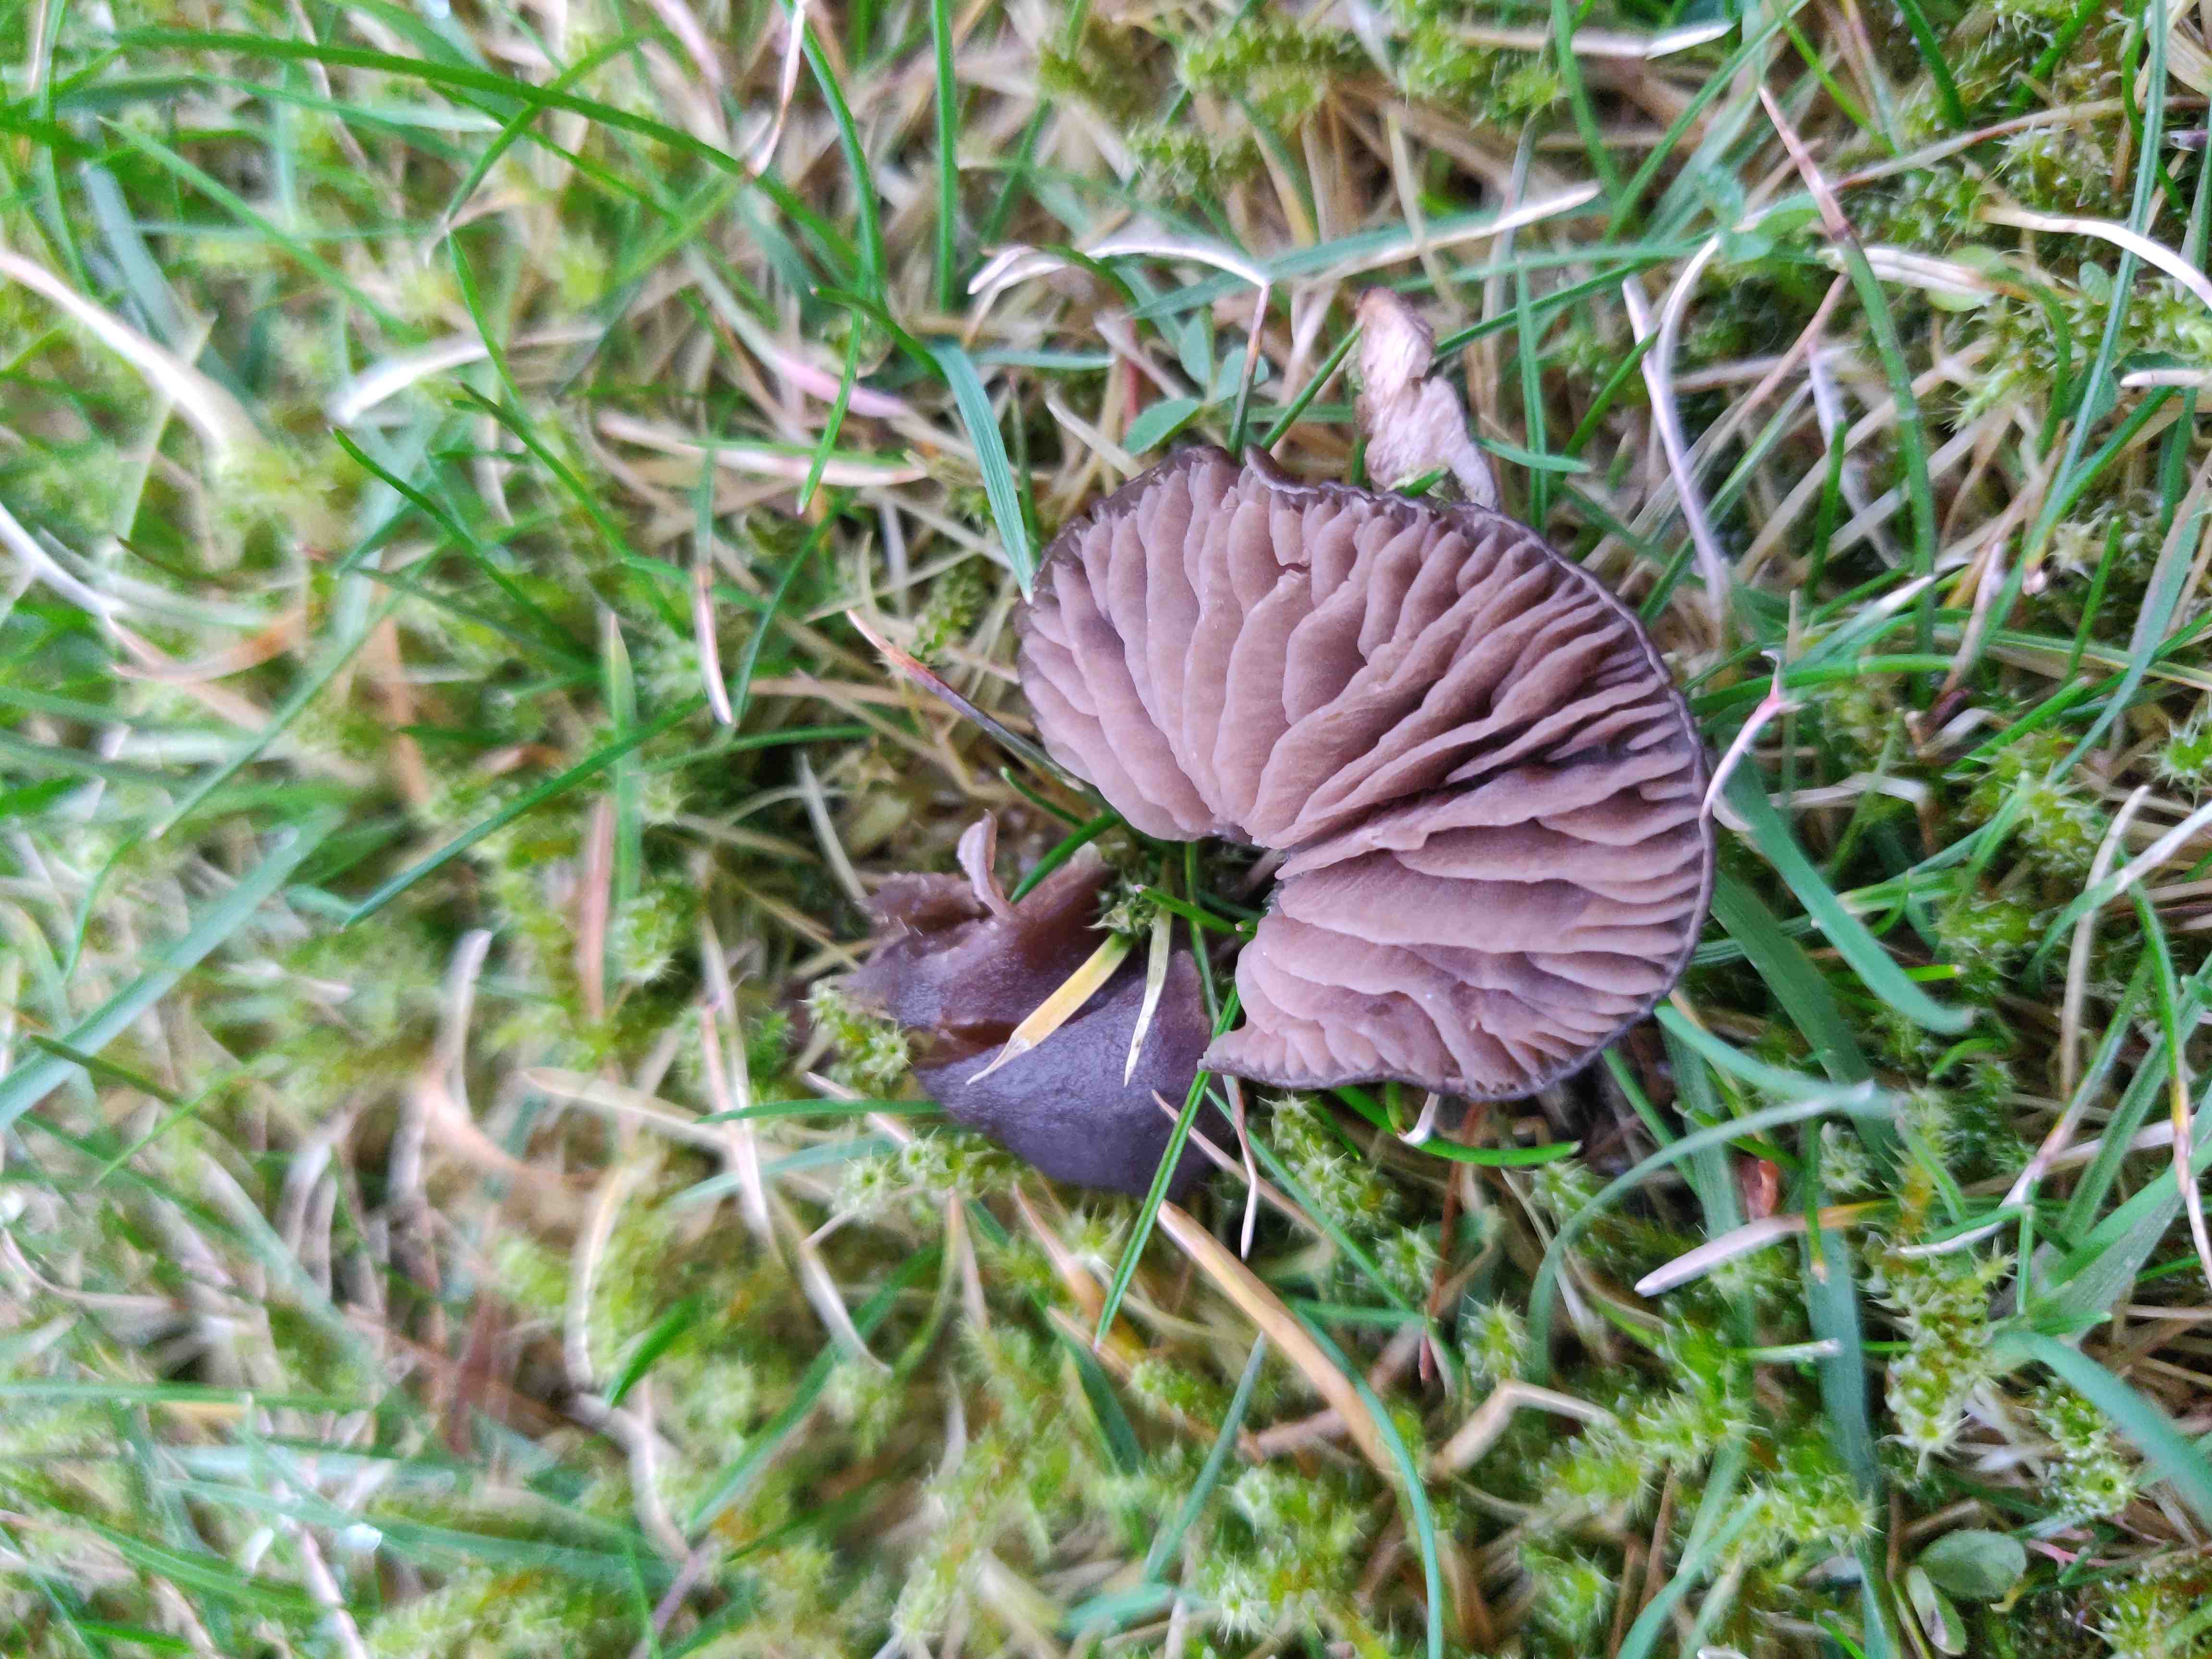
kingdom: Fungi
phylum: Basidiomycota
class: Agaricomycetes
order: Agaricales
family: Entolomataceae
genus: Entoloma
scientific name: Entoloma
